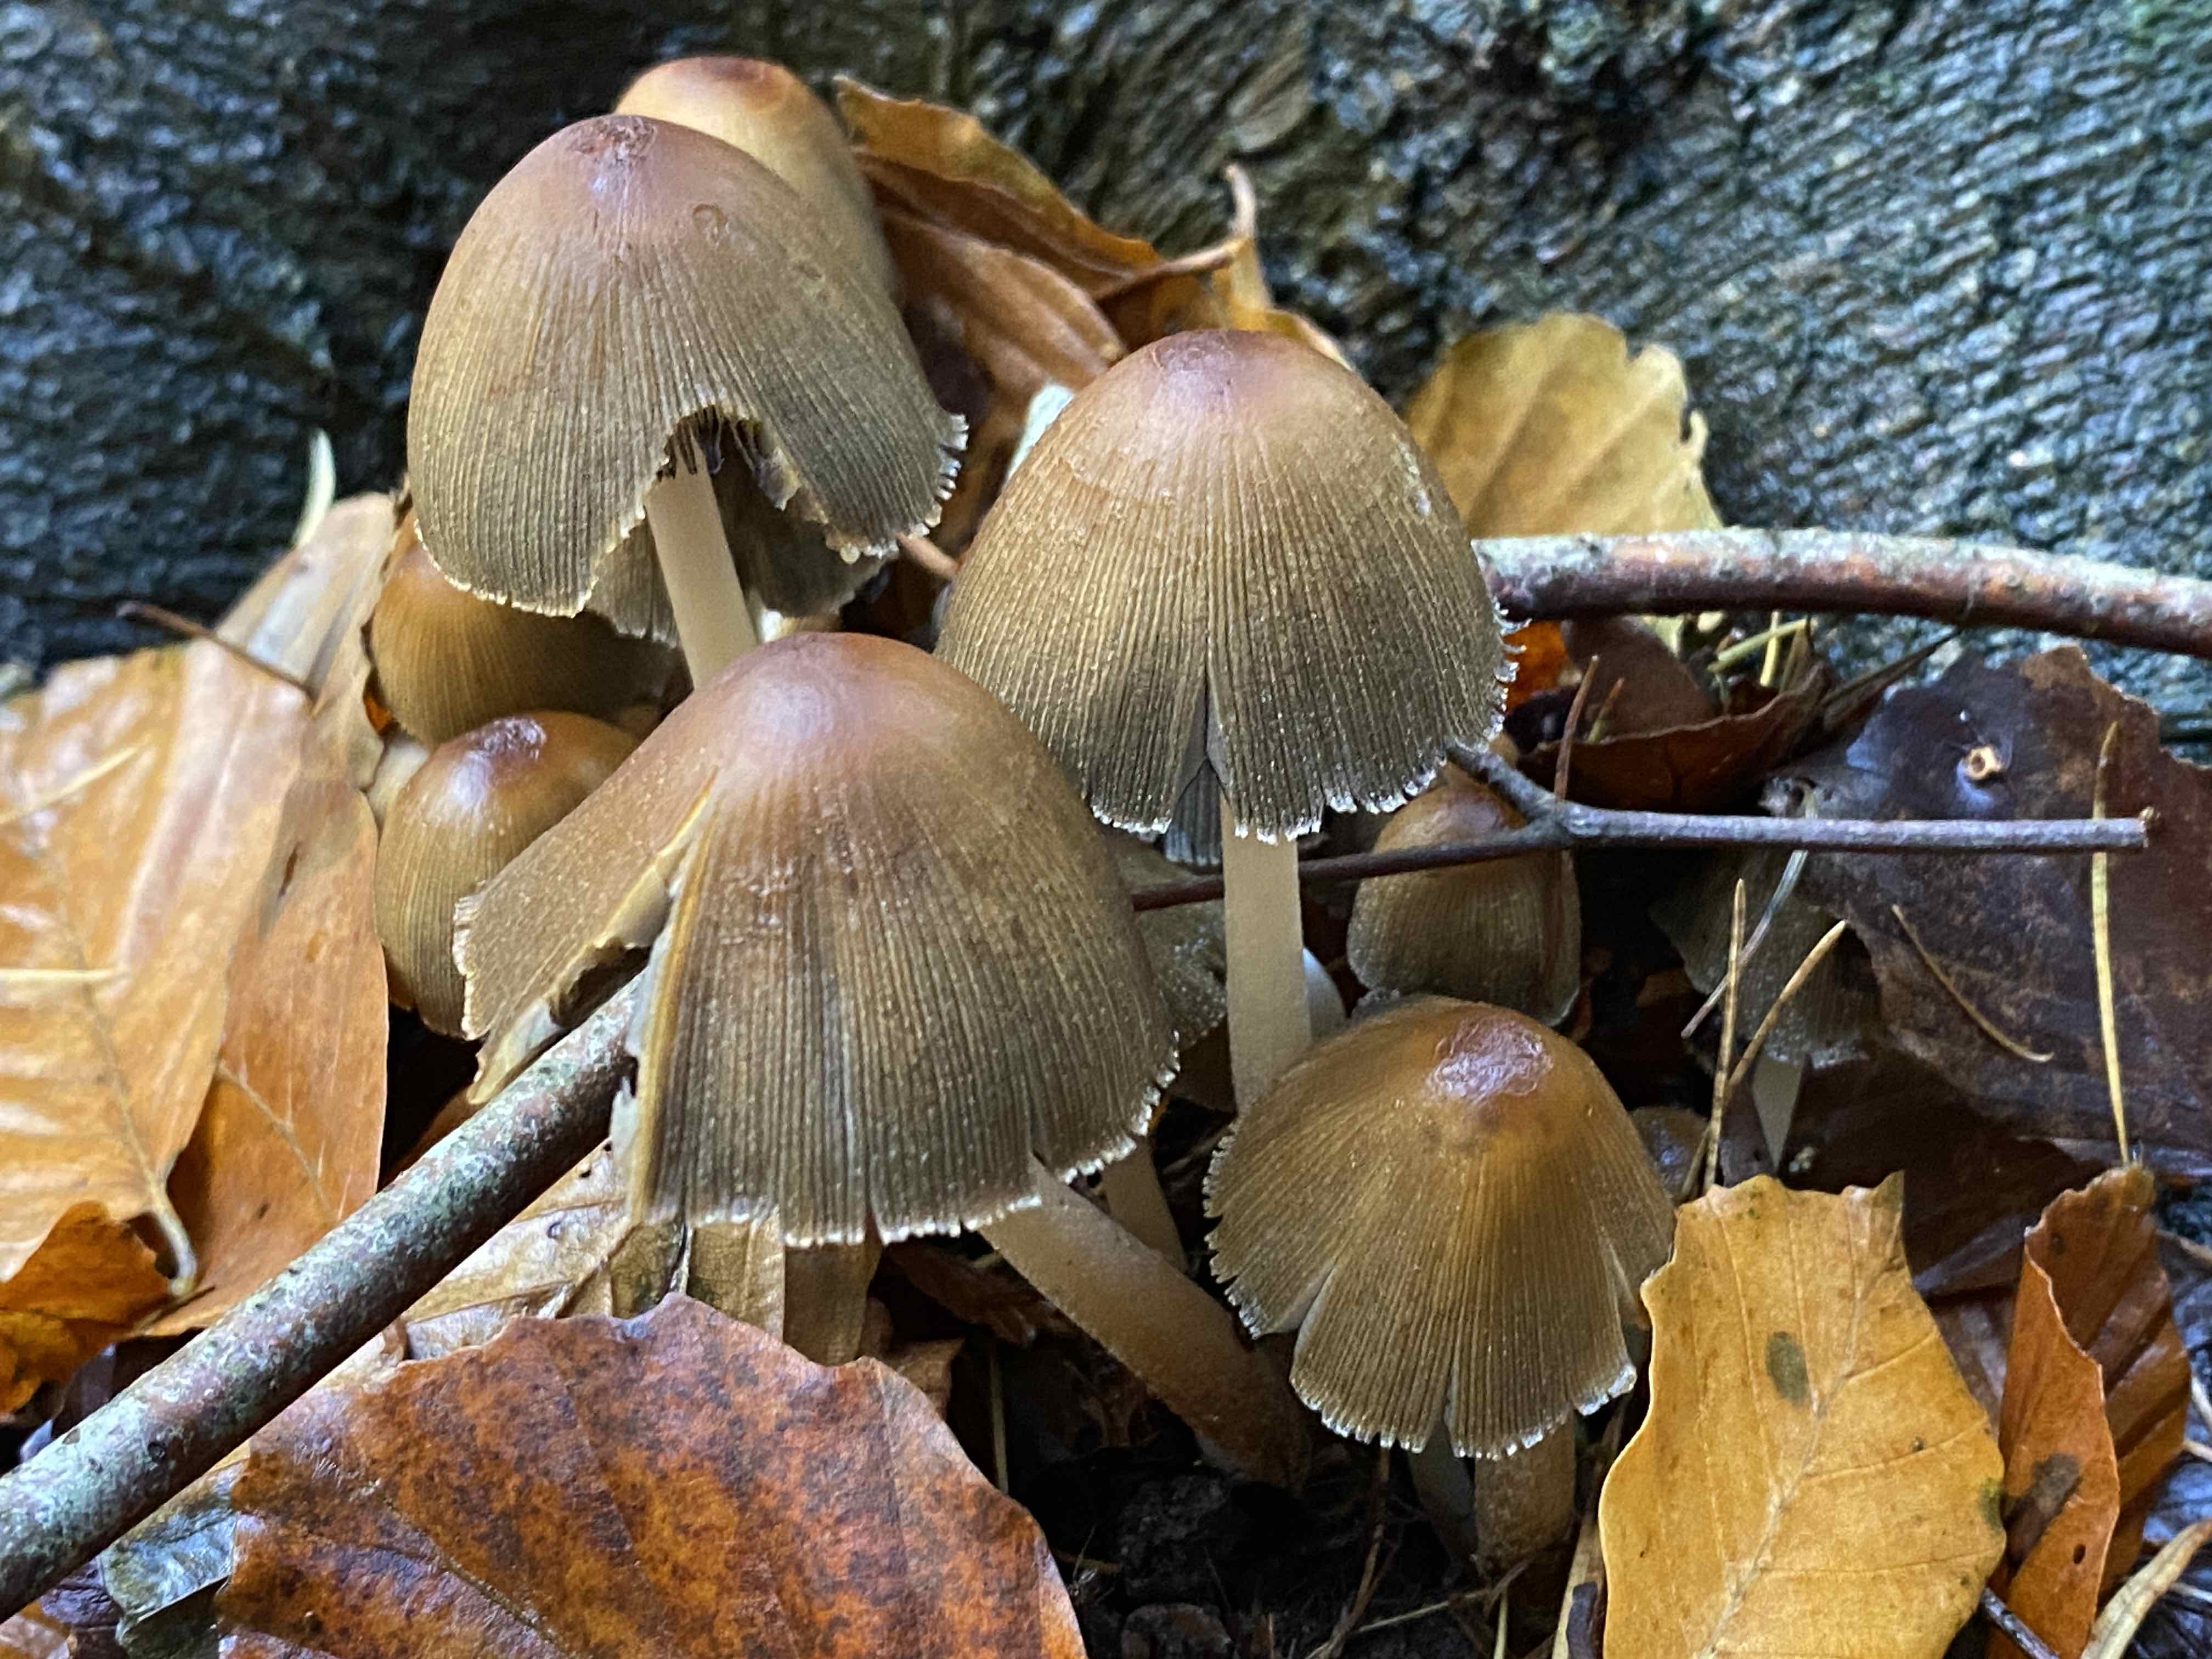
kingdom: Fungi
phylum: Basidiomycota
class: Agaricomycetes
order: Agaricales
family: Psathyrellaceae
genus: Coprinellus
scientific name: Coprinellus micaceus
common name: glimmer-blækhat
